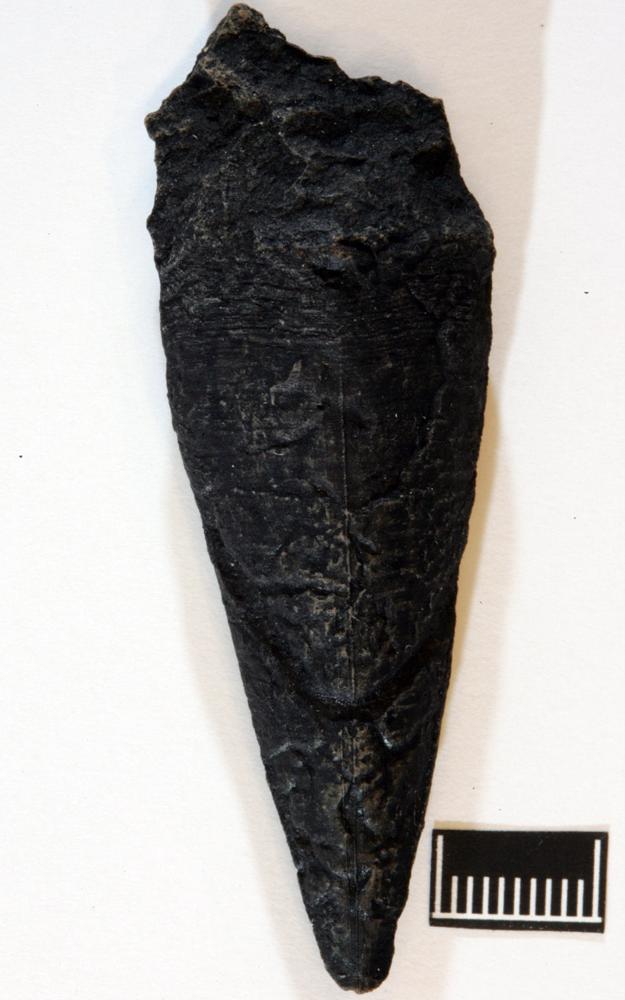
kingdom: Animalia
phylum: Annelida
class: Polychaeta
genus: Hyolithes
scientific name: Hyolithes
